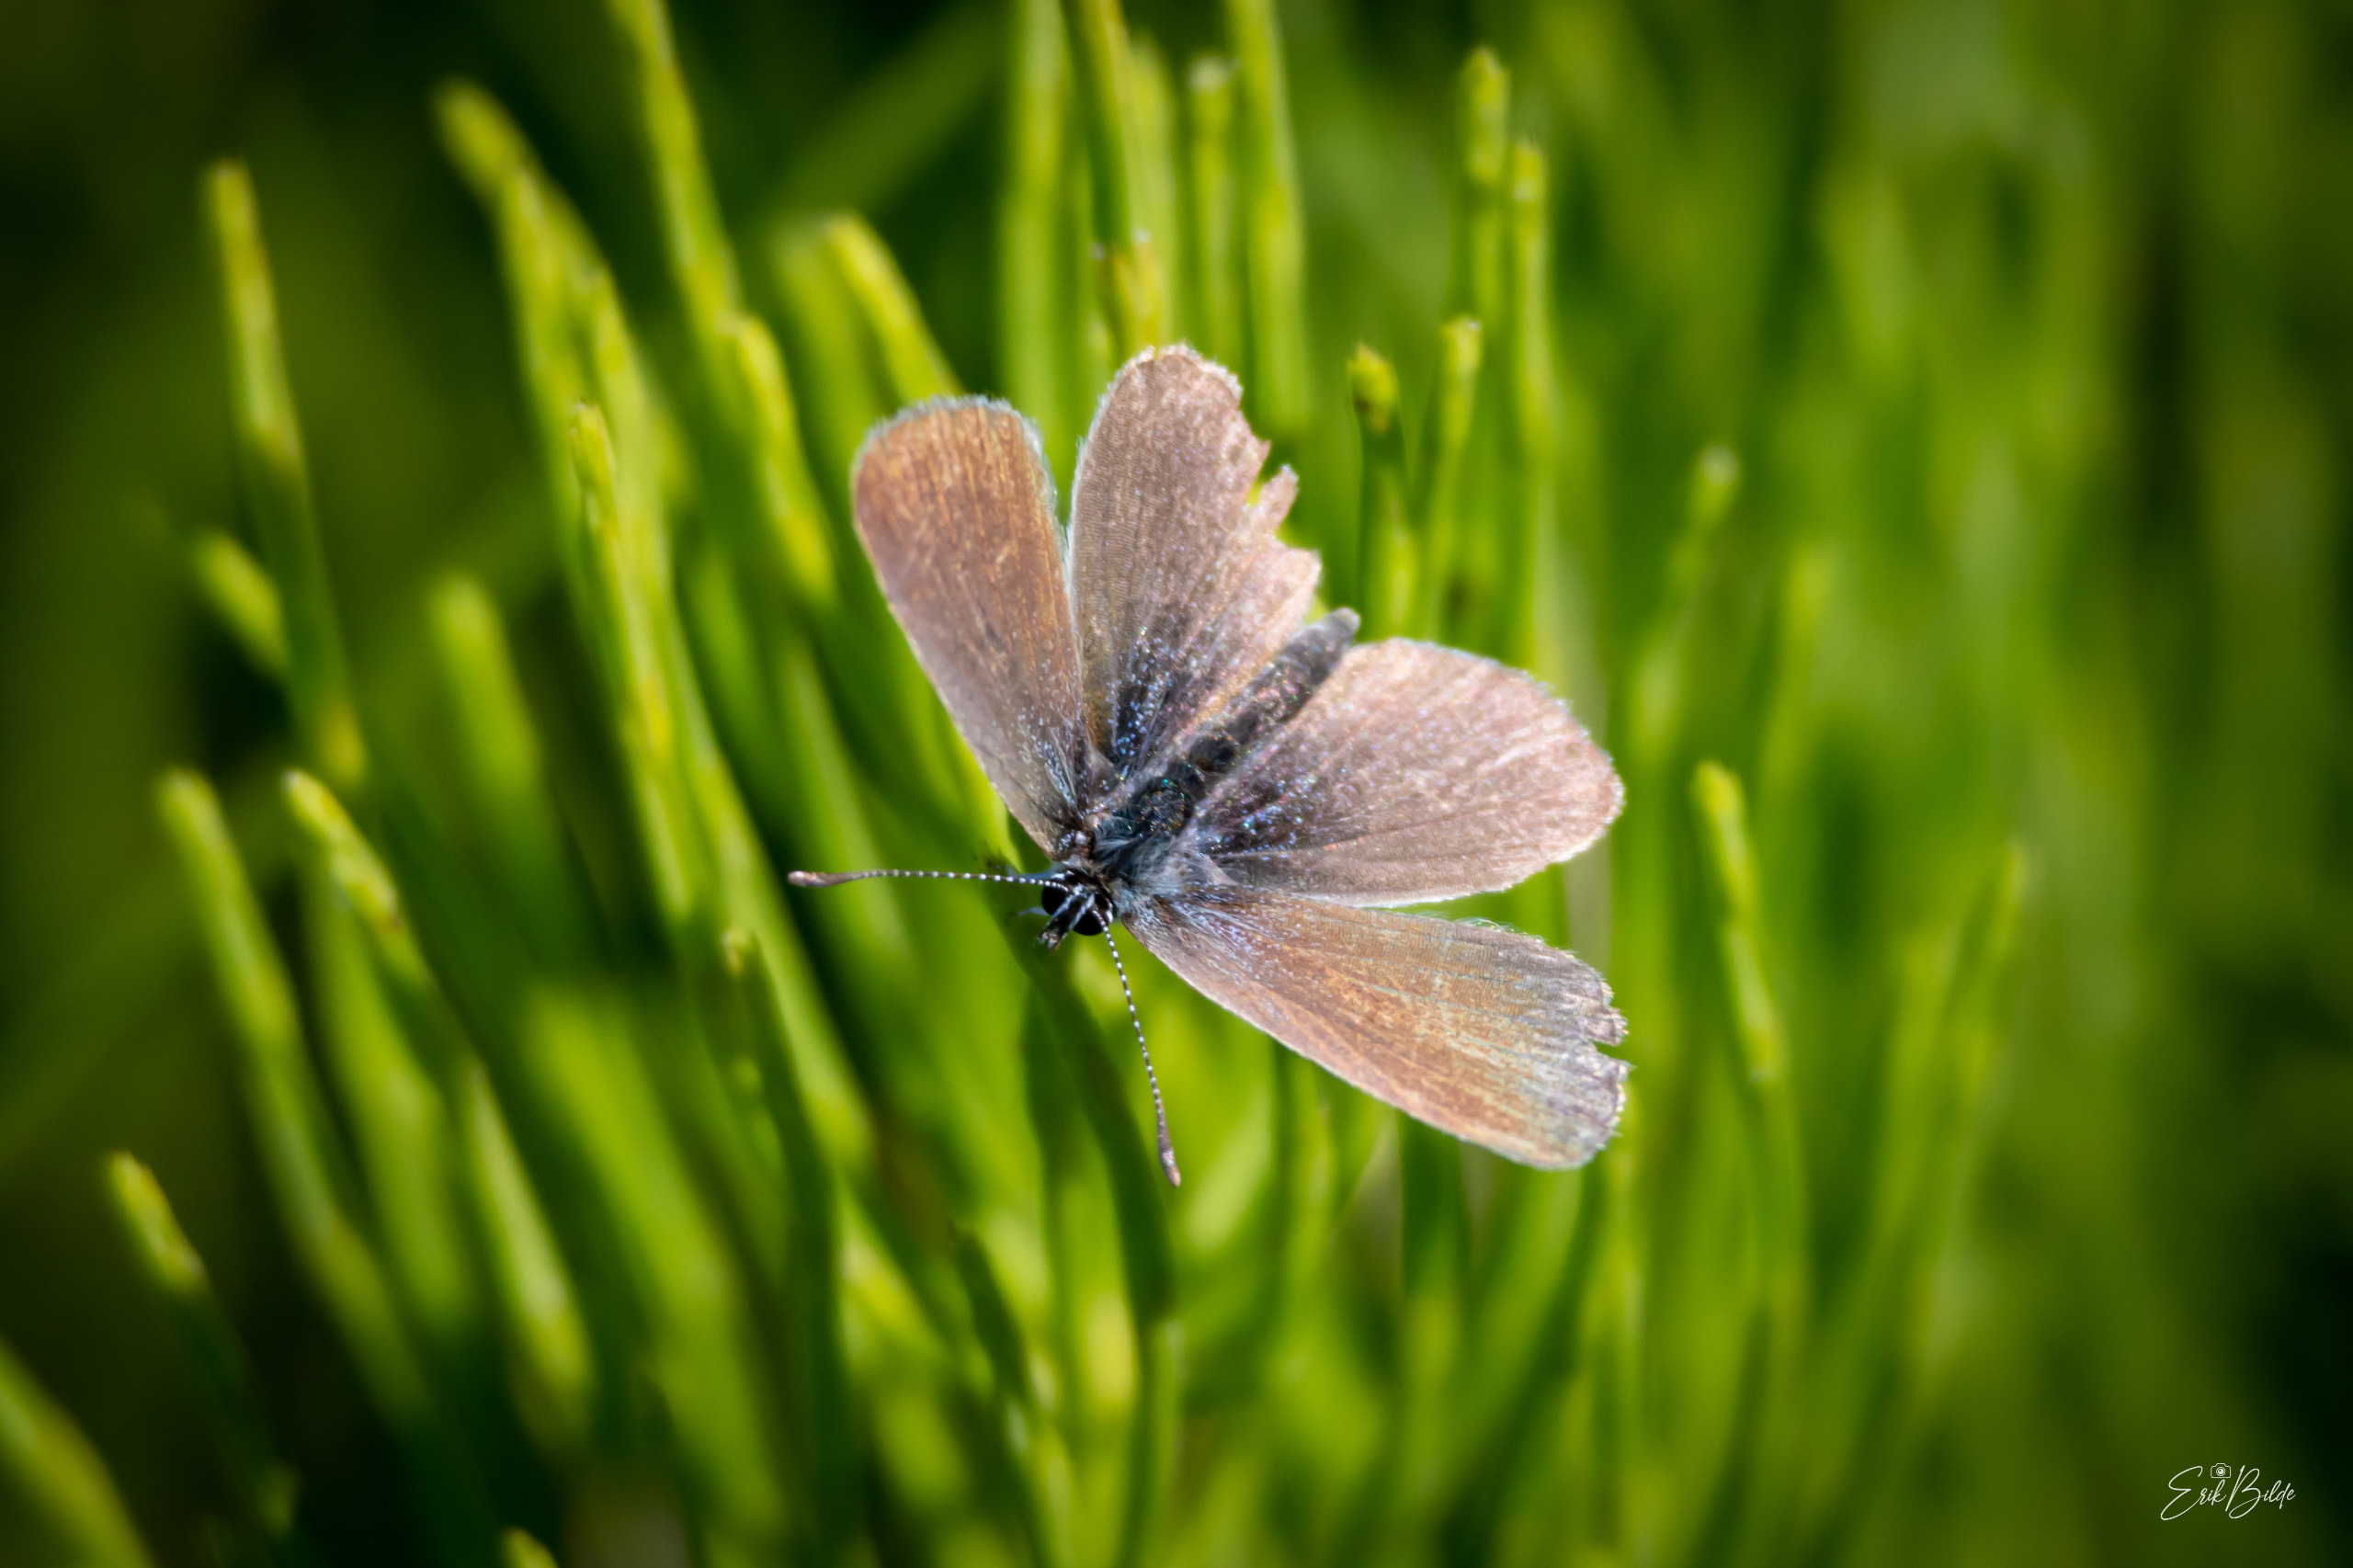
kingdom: Animalia
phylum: Arthropoda
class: Insecta
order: Lepidoptera
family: Lycaenidae
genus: Cupido
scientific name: Cupido minimus
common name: Dværgblåfugl
